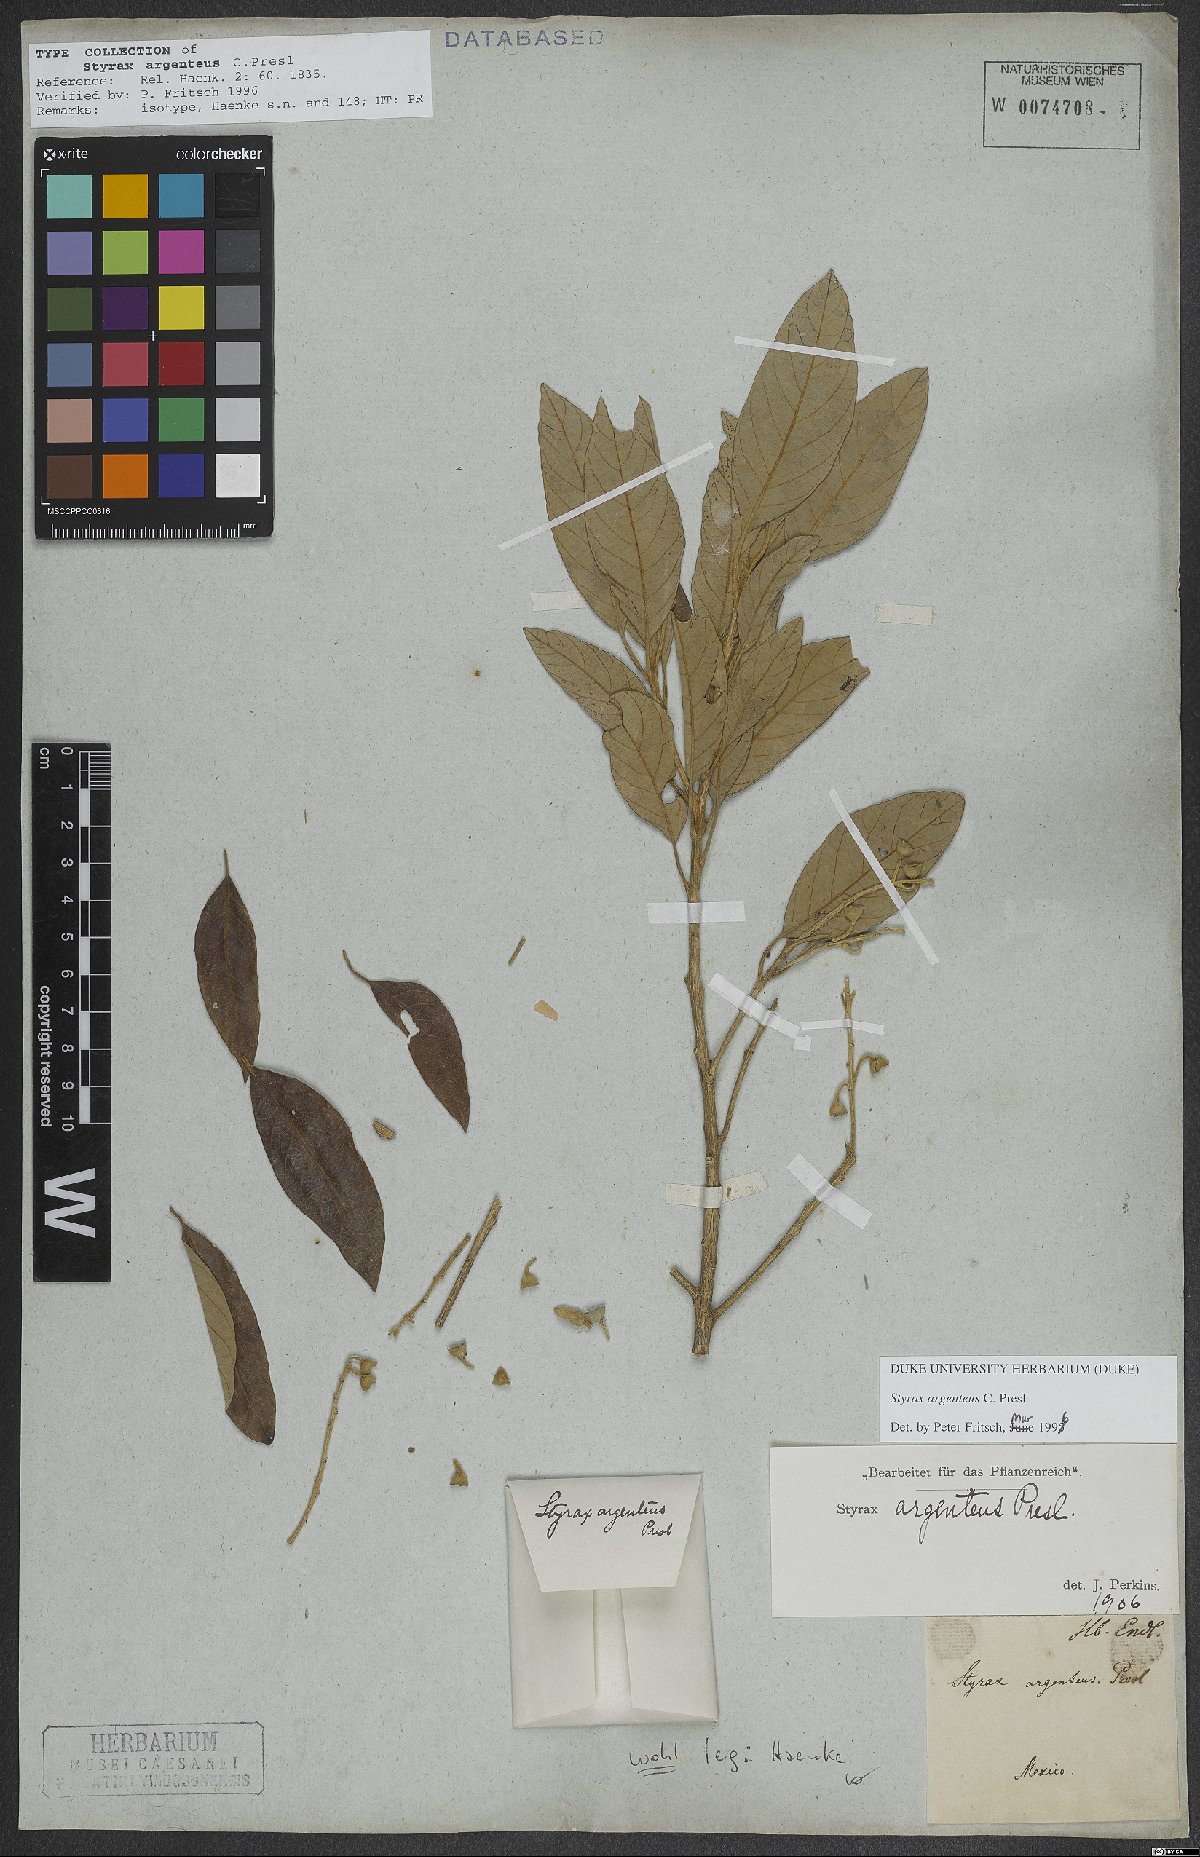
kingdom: Plantae
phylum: Tracheophyta
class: Magnoliopsida
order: Ericales
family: Styracaceae
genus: Styrax
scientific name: Styrax argenteus
